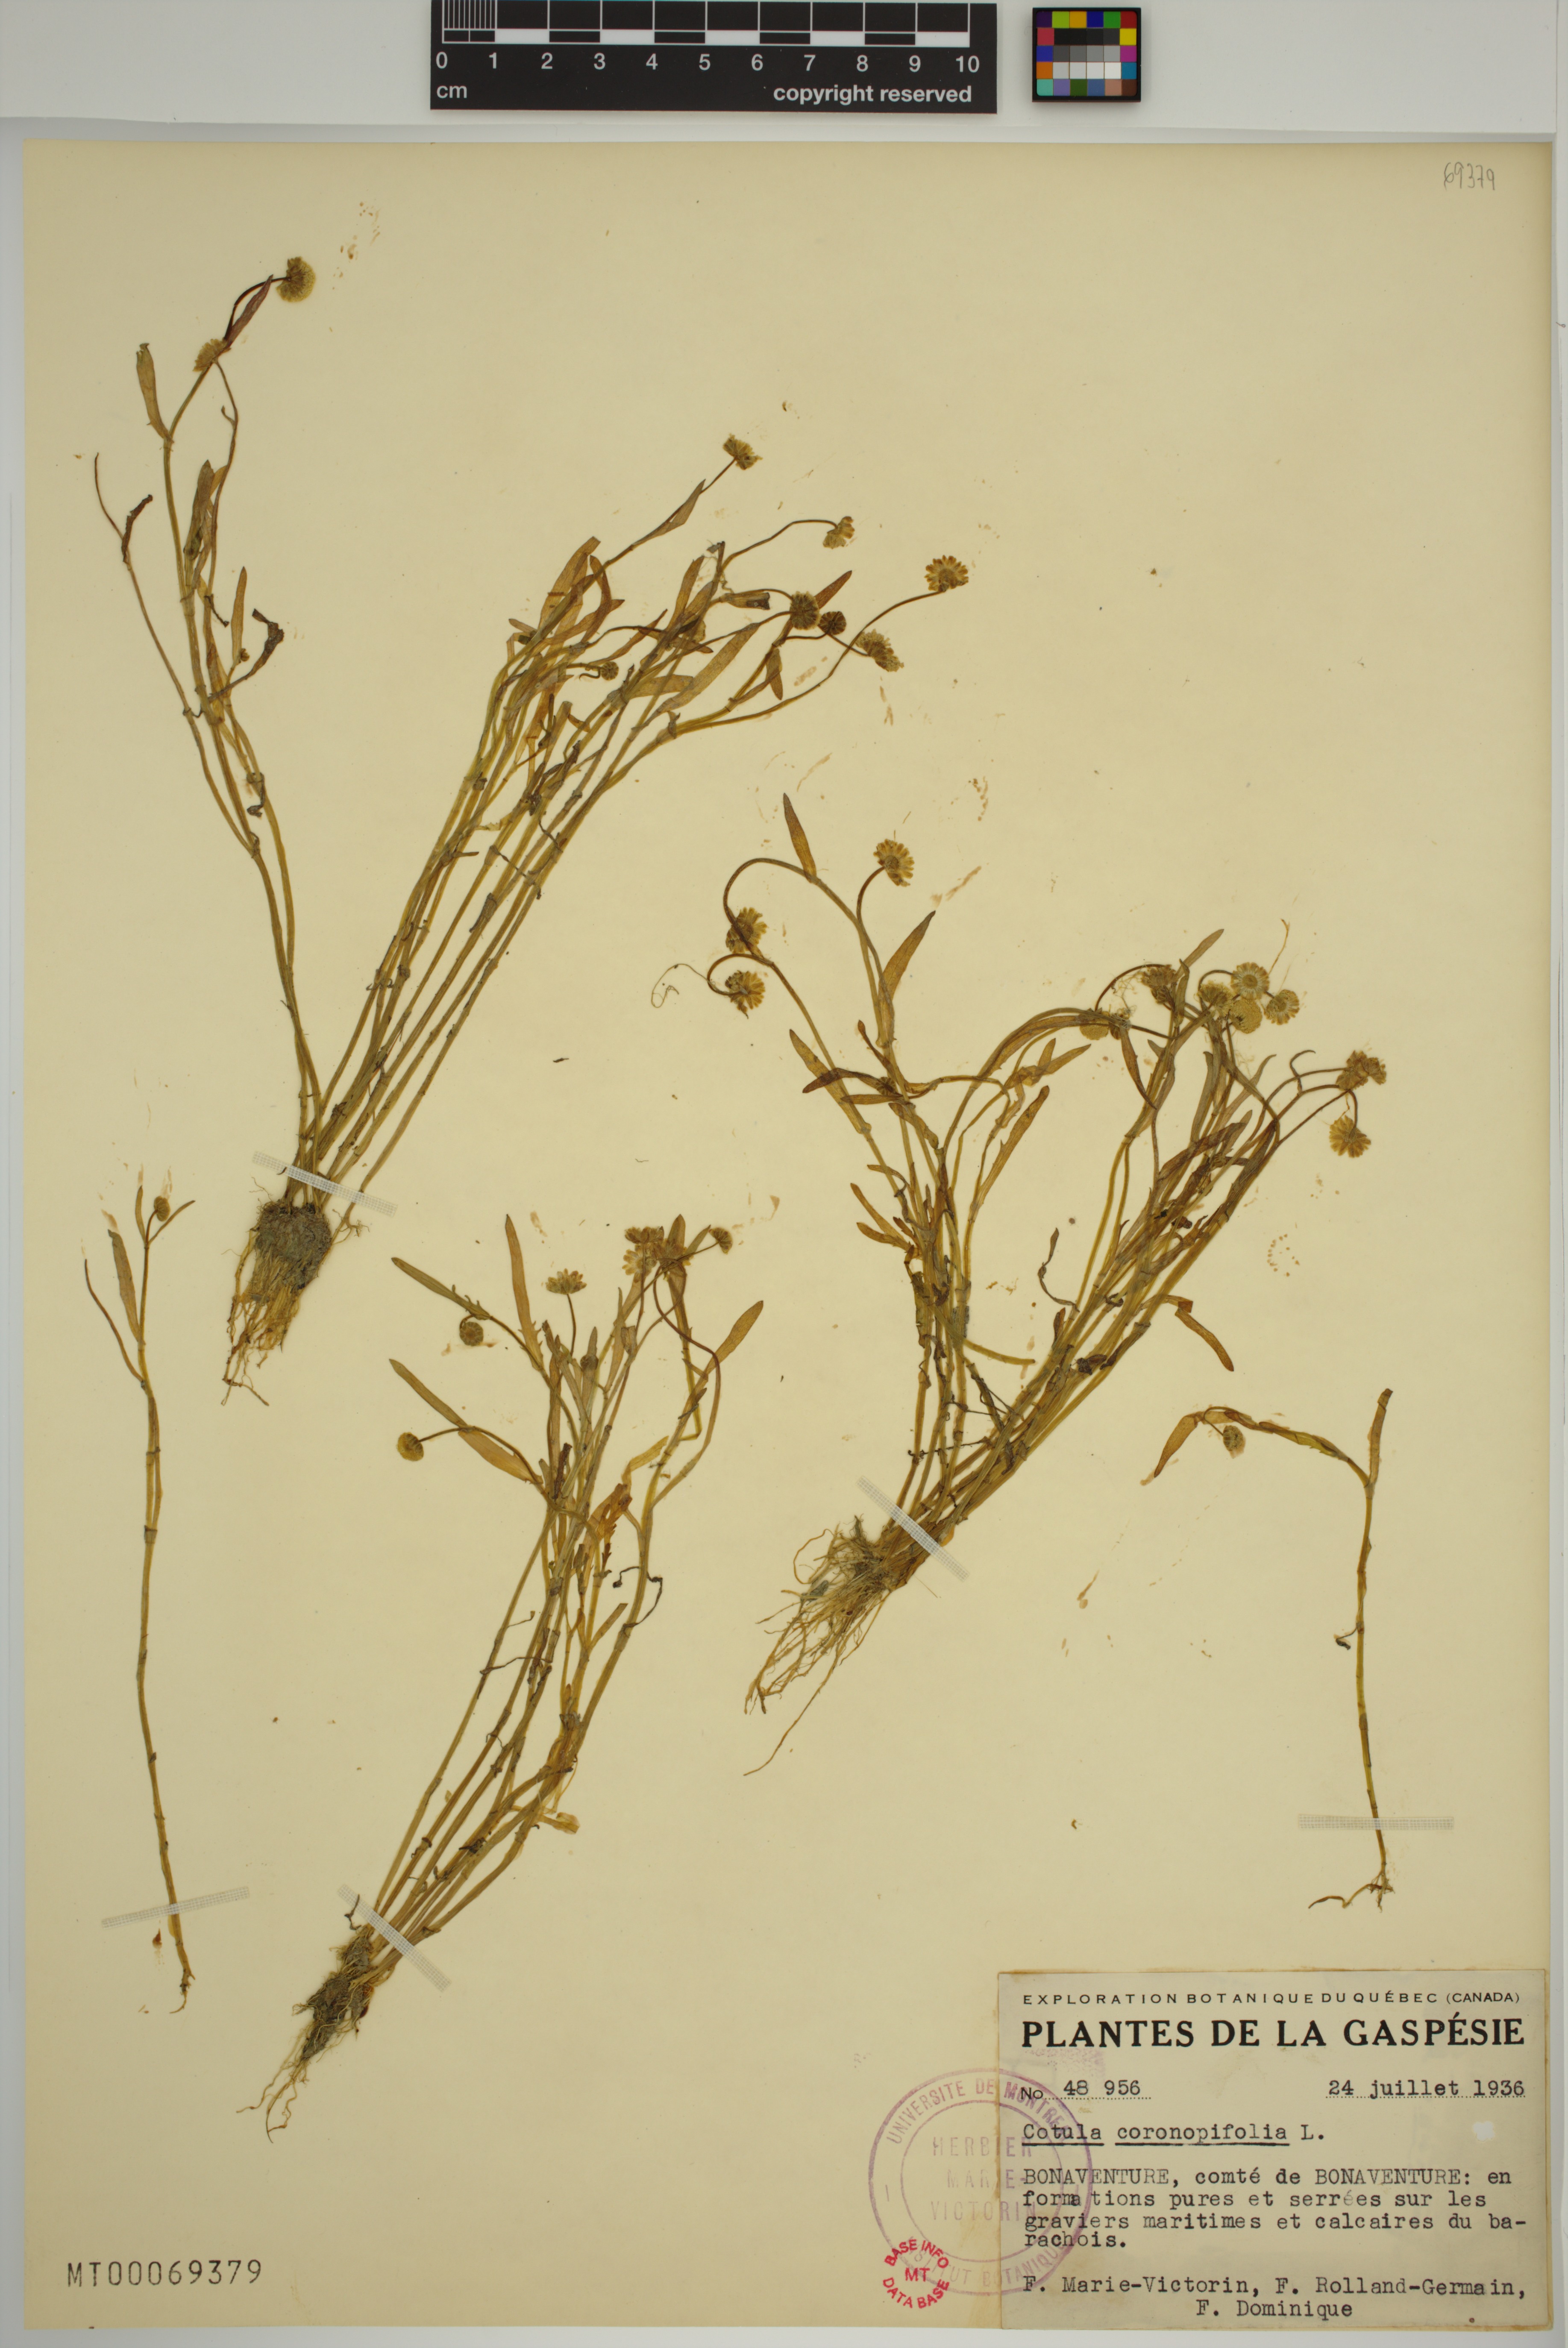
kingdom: Plantae
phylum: Tracheophyta
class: Magnoliopsida
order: Asterales
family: Asteraceae
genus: Cotula
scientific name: Cotula coronopifolia
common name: Buttonweed
